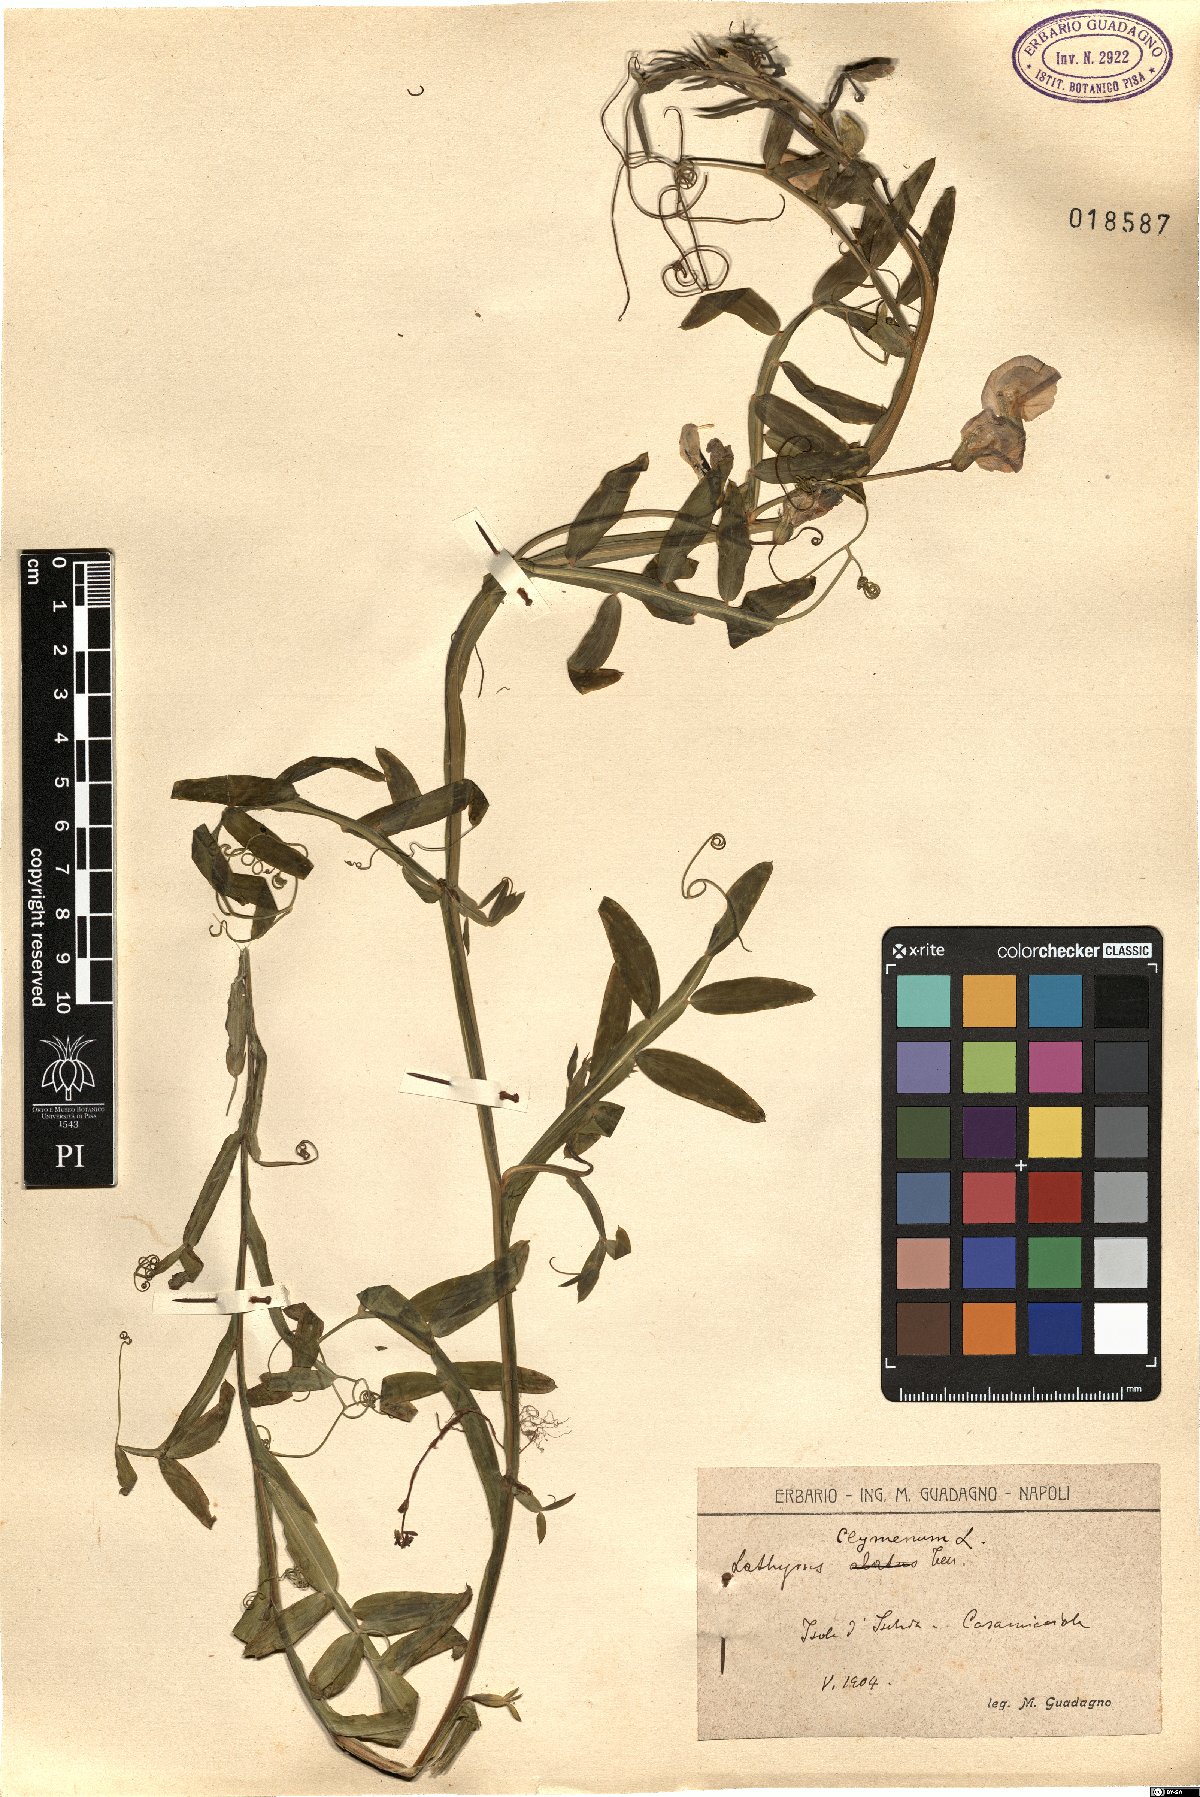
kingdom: Plantae
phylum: Tracheophyta
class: Magnoliopsida
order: Fabales
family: Fabaceae
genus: Lathyrus
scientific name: Lathyrus clymenum
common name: Spanish vetchling
